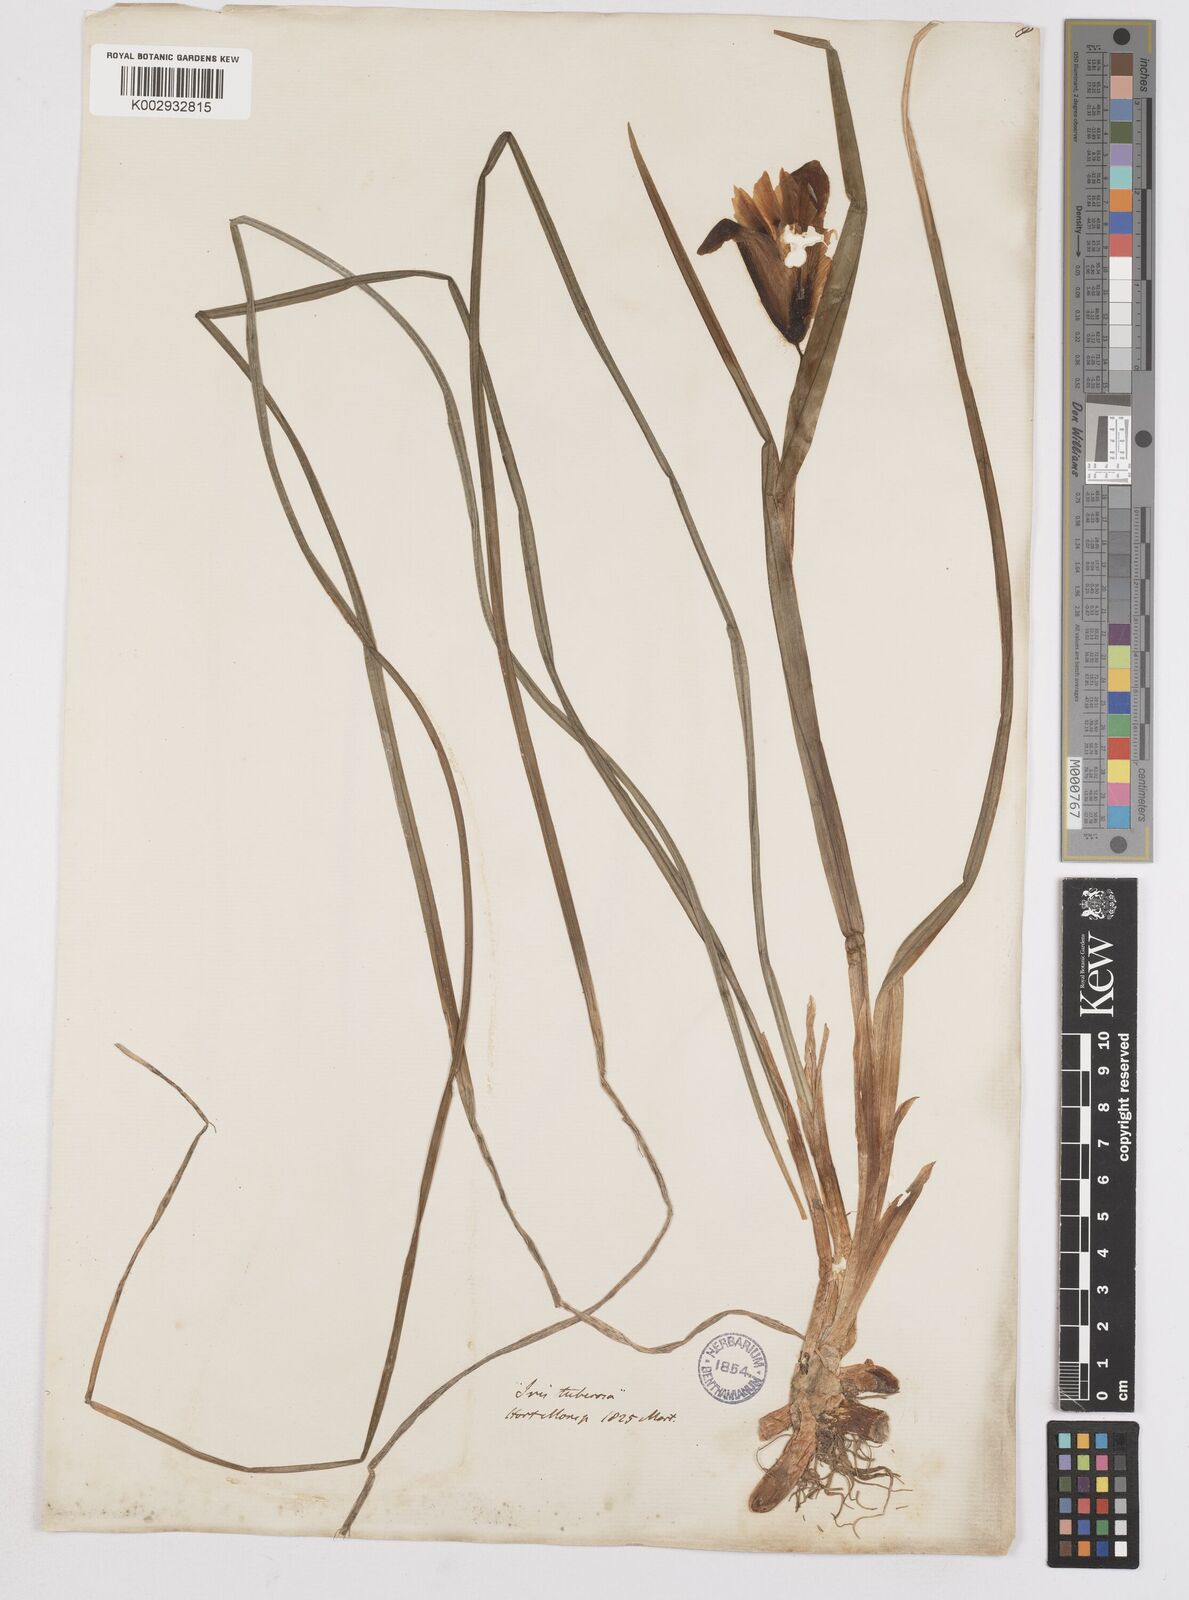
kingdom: Plantae
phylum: Tracheophyta
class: Liliopsida
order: Asparagales
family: Iridaceae
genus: Iris
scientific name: Iris tuberosa
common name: Snake's-head iris
